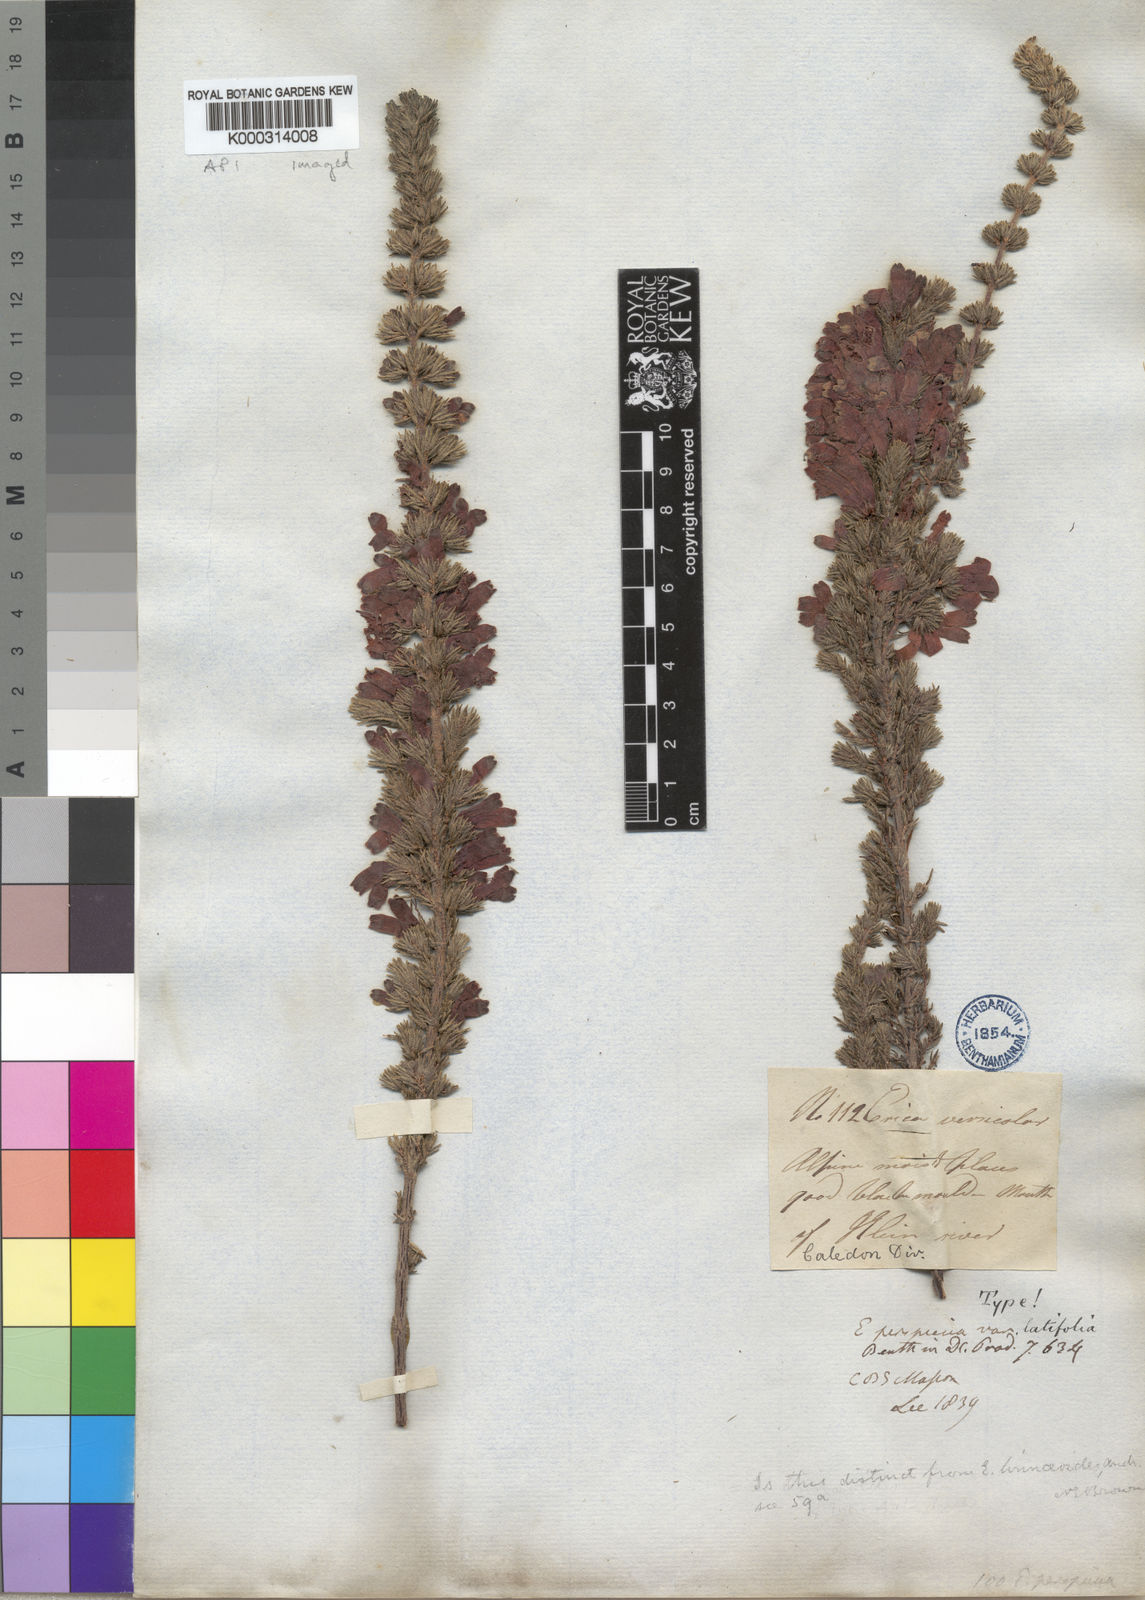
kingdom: Plantae
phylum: Tracheophyta
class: Magnoliopsida
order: Ericales
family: Ericaceae
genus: Erica
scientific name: Erica perspicua
